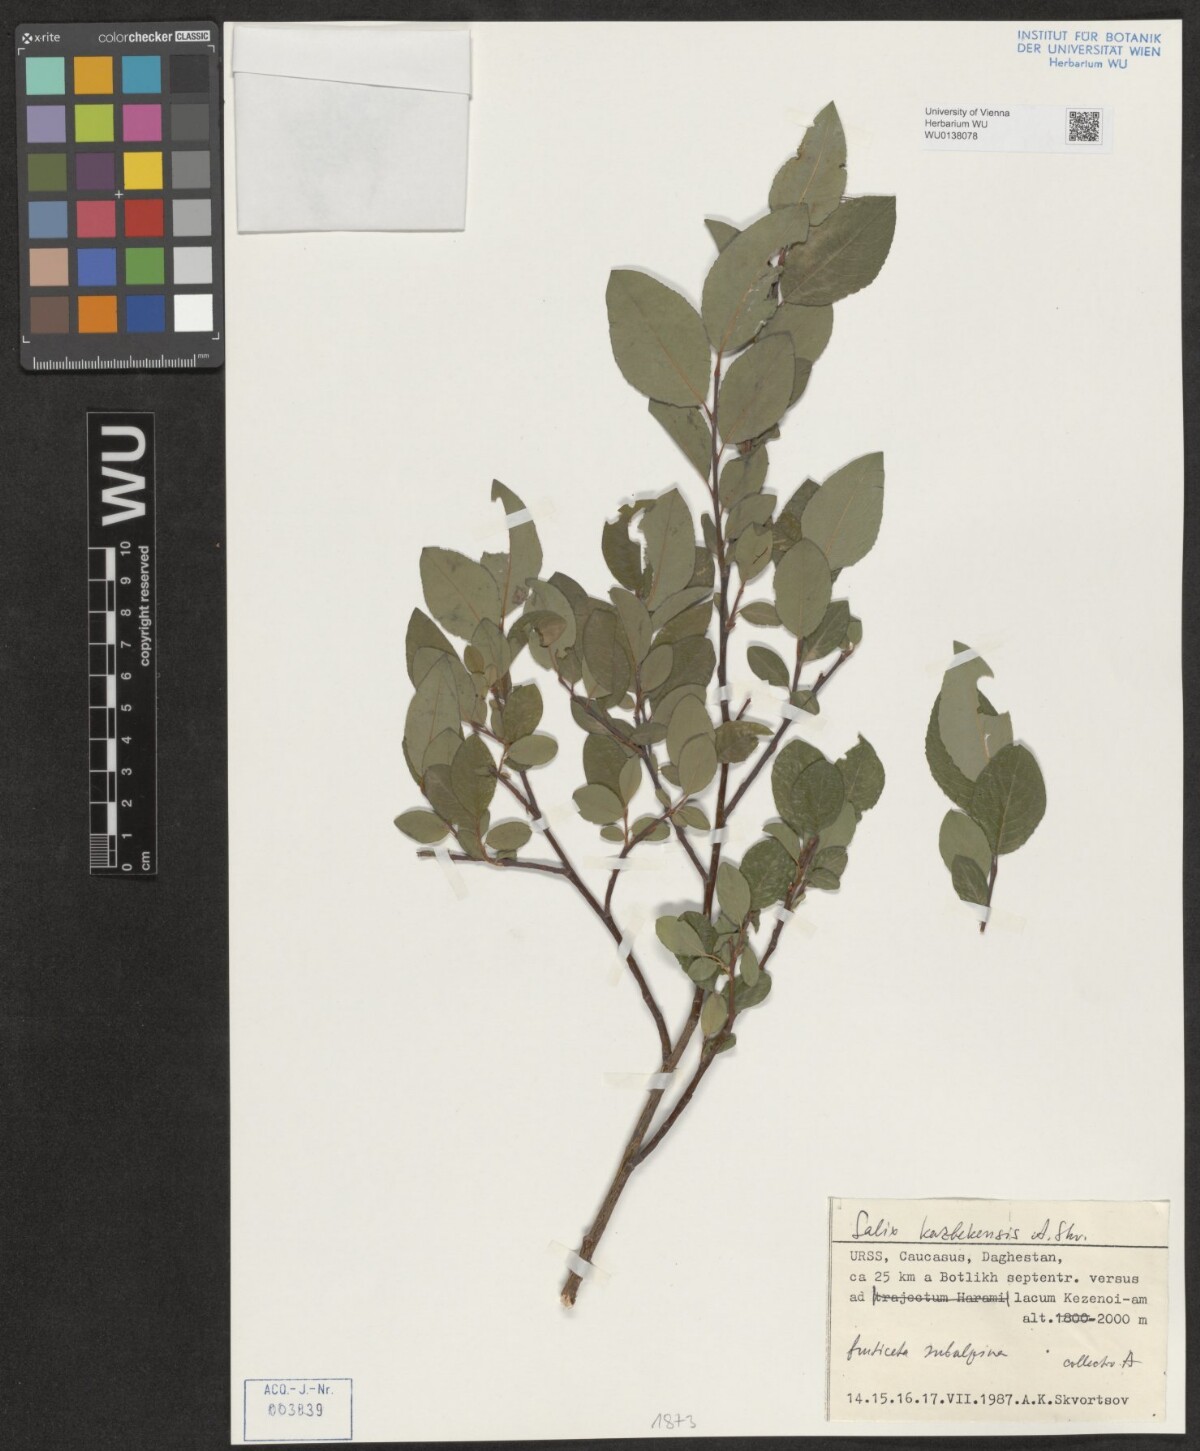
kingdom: Plantae
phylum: Tracheophyta
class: Magnoliopsida
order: Malpighiales
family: Salicaceae
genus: Salix
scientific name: Salix kazbekensis
